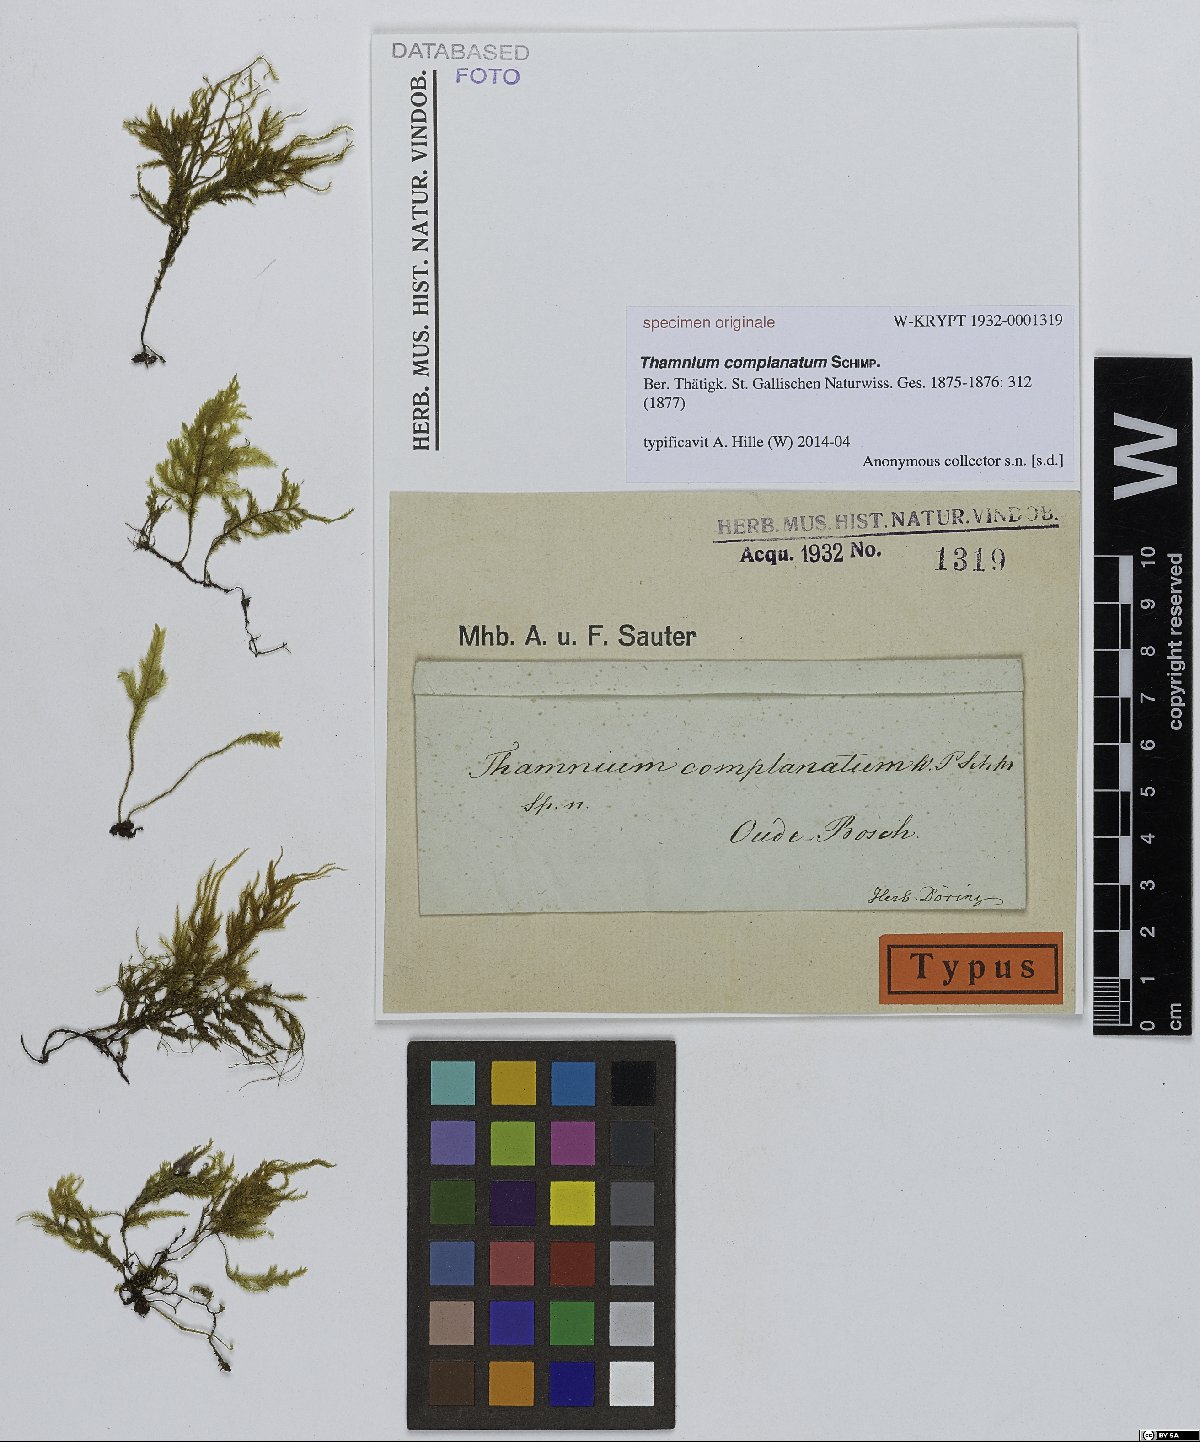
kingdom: Plantae
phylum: Bryophyta
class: Bryopsida
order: Hypnales
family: Neckeraceae
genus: Thamnium
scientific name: Thamnium
